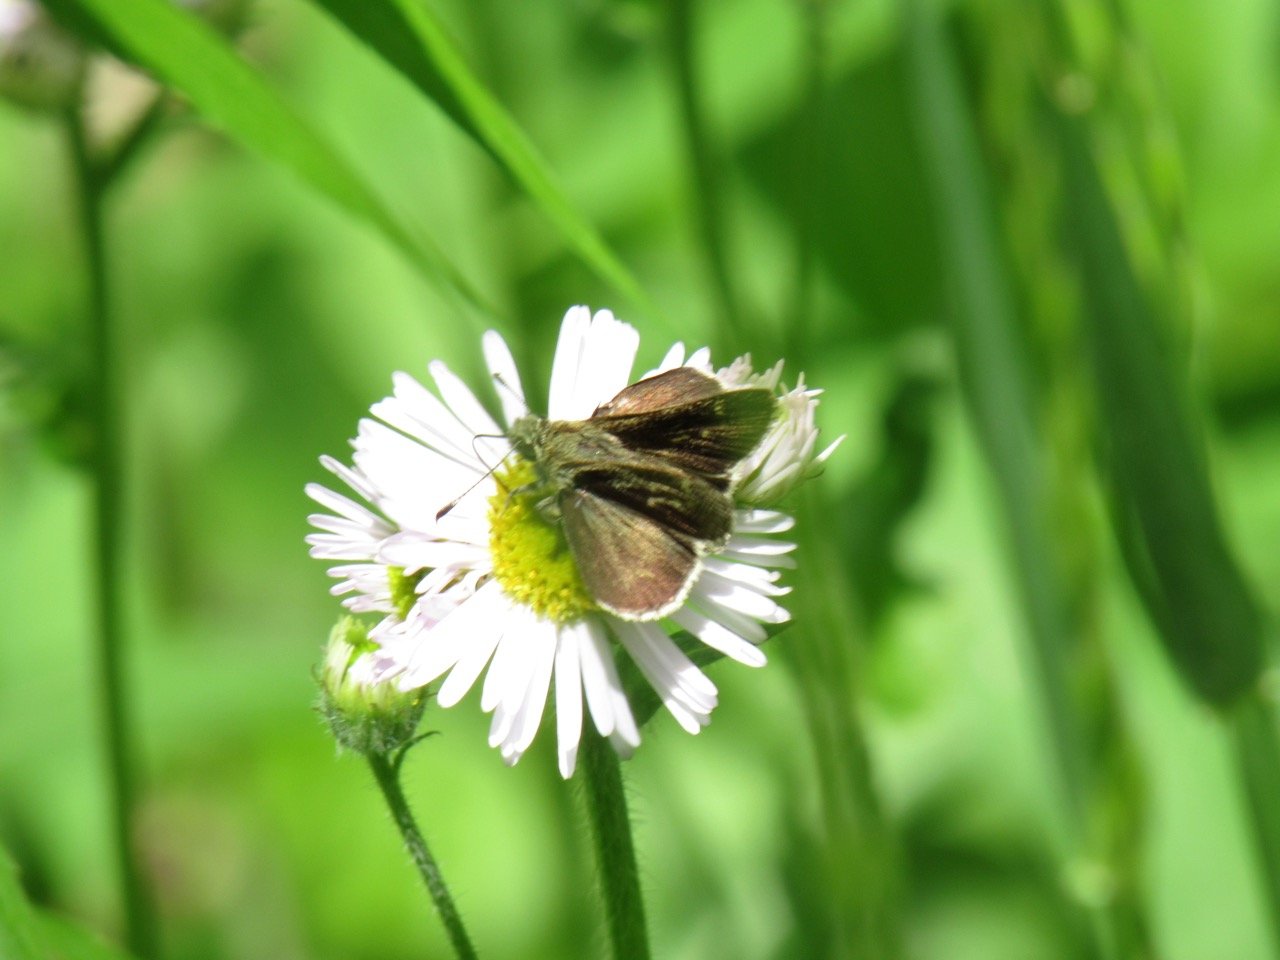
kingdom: Animalia
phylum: Arthropoda
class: Insecta
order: Lepidoptera
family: Hesperiidae
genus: Mastor
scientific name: Mastor hegon
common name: Pepper and Salt Skipper
